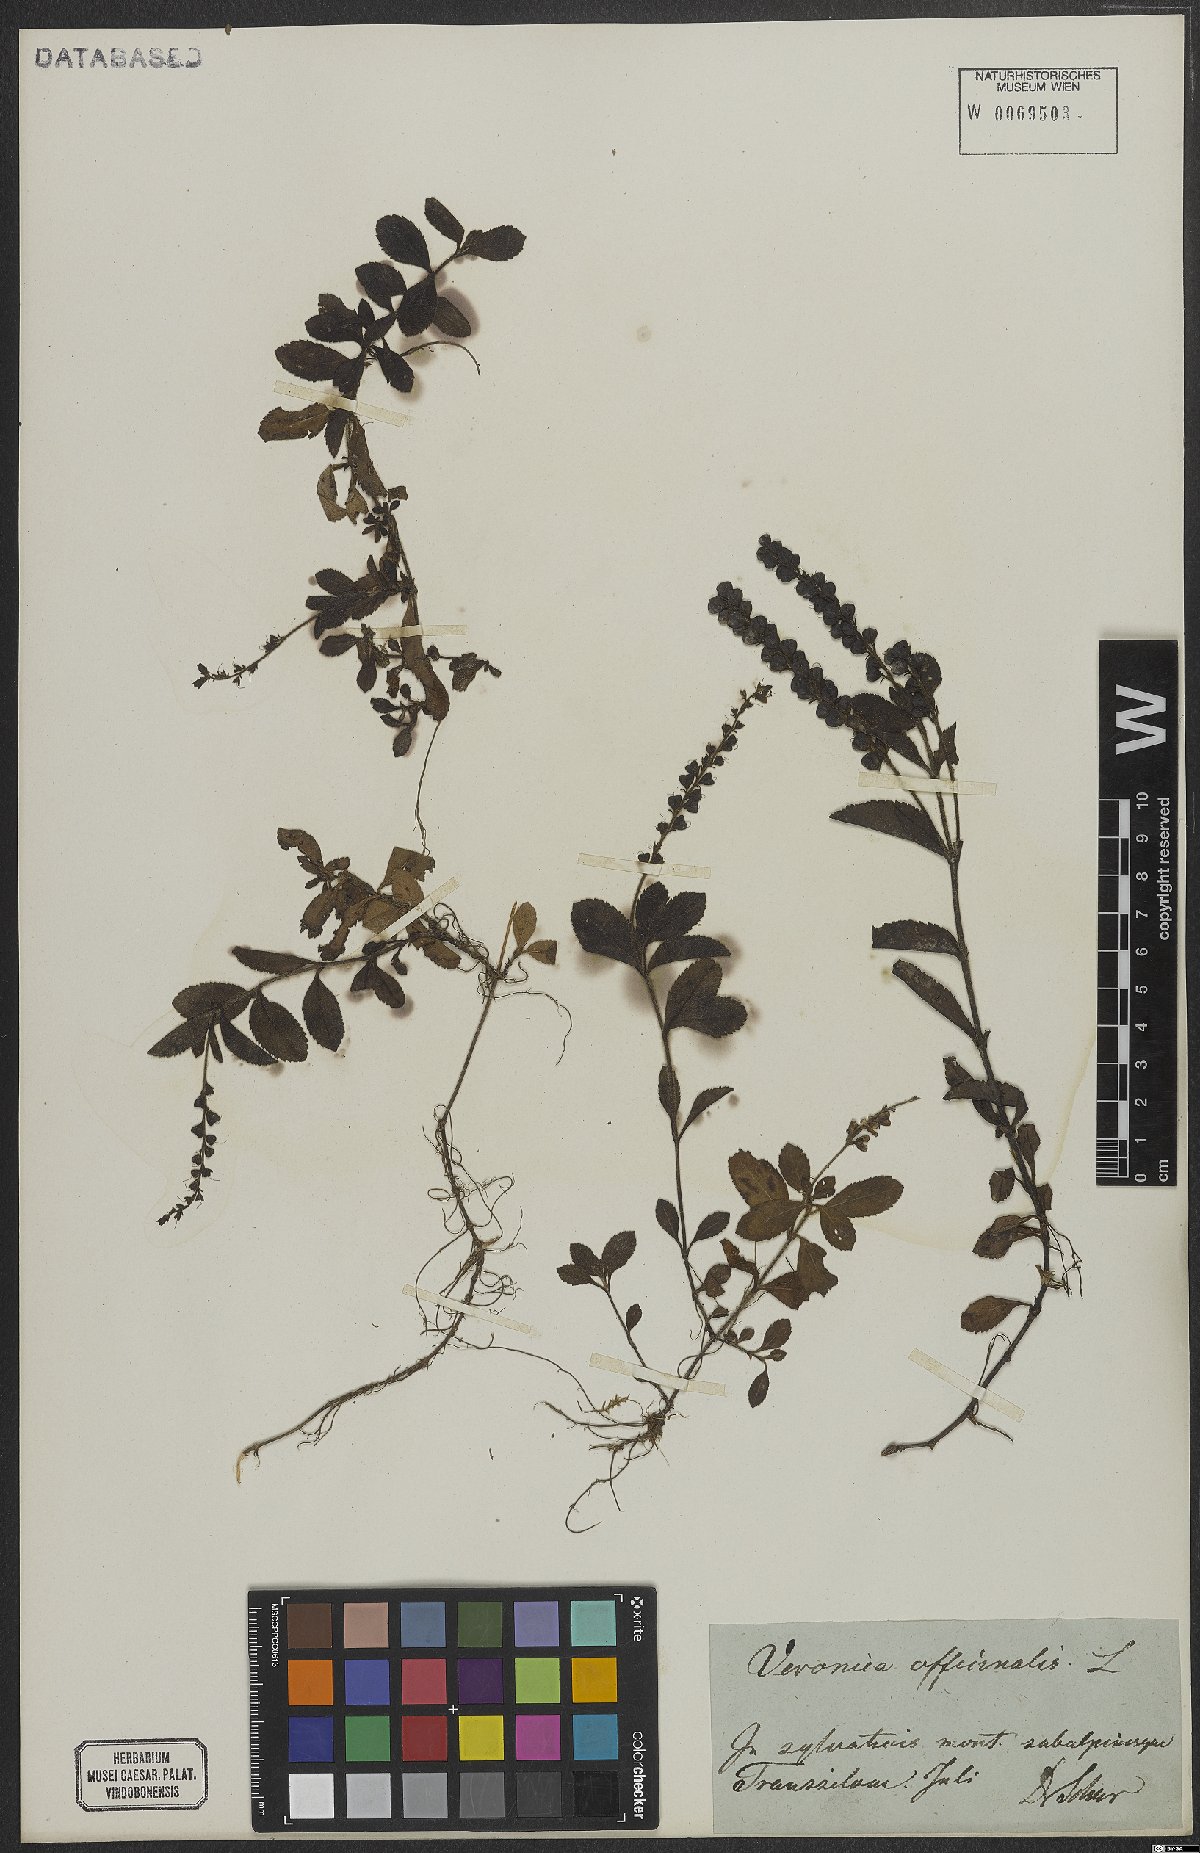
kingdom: Plantae
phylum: Tracheophyta
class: Magnoliopsida
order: Lamiales
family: Plantaginaceae
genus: Veronica
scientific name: Veronica officinalis
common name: Common speedwell
